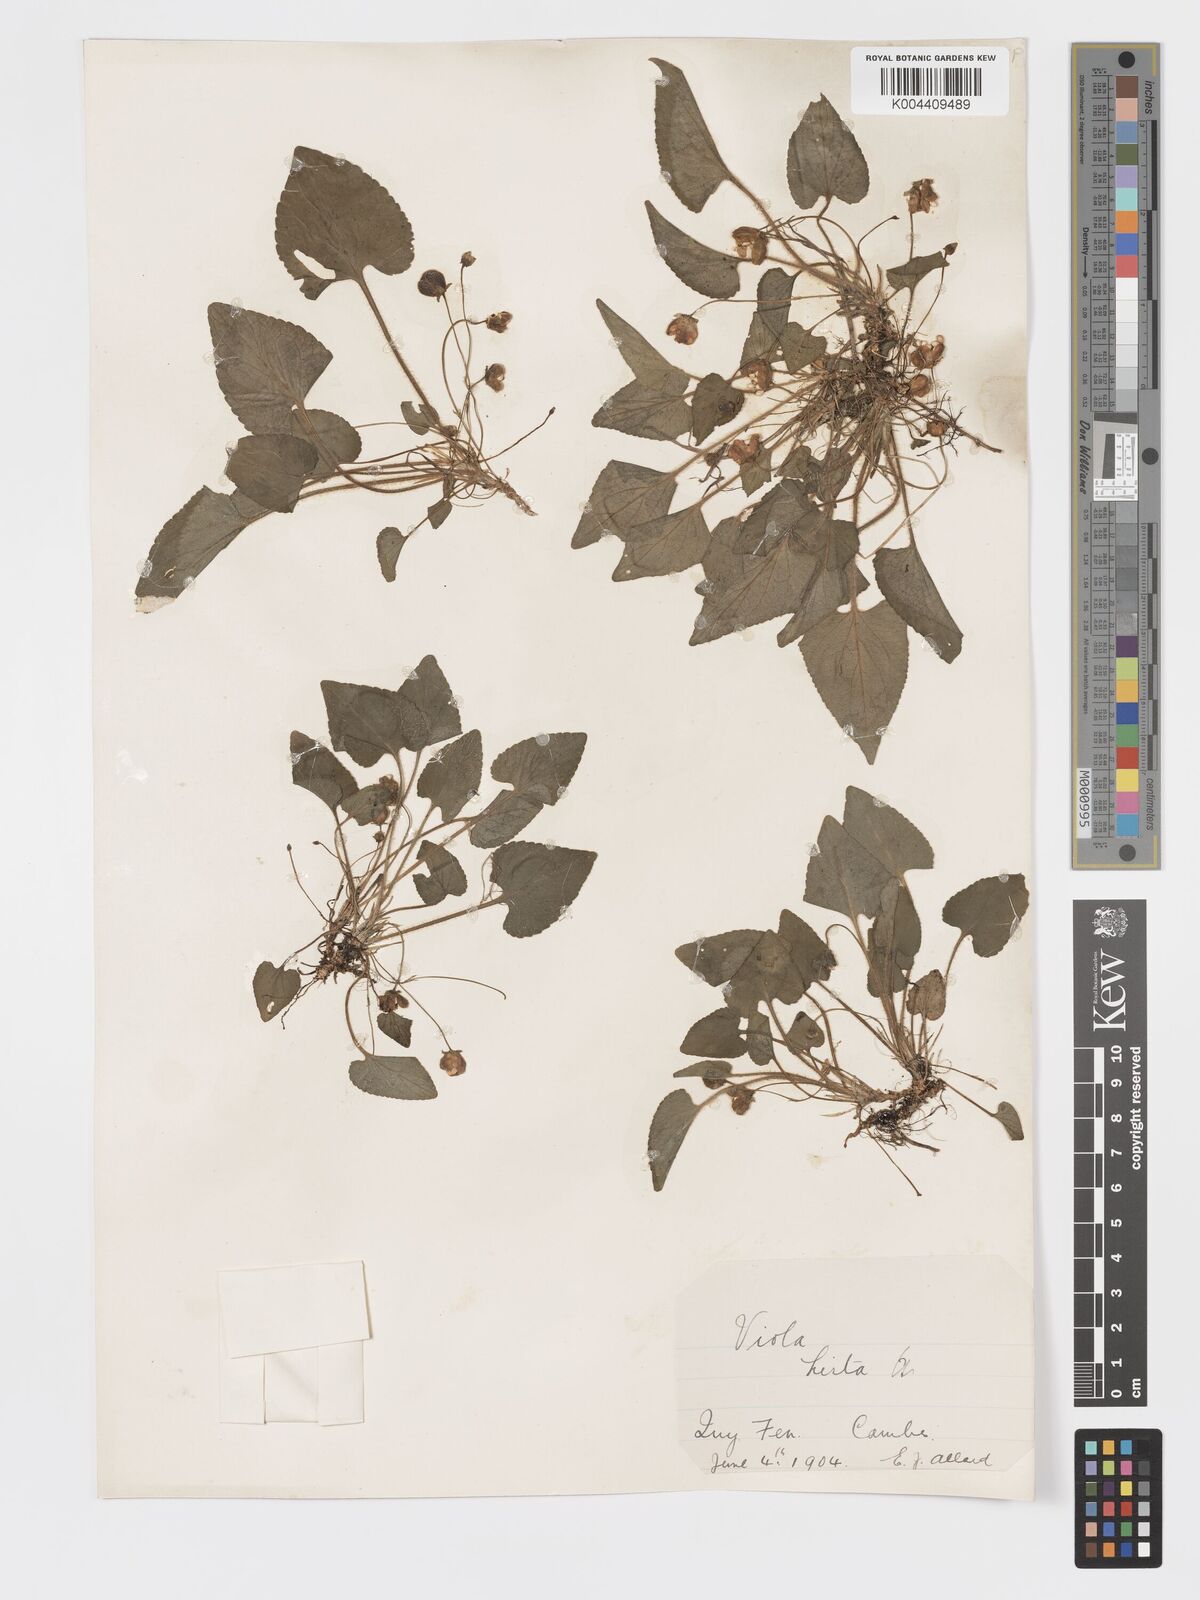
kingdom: Plantae
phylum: Tracheophyta
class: Magnoliopsida
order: Malpighiales
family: Violaceae
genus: Viola
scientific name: Viola
